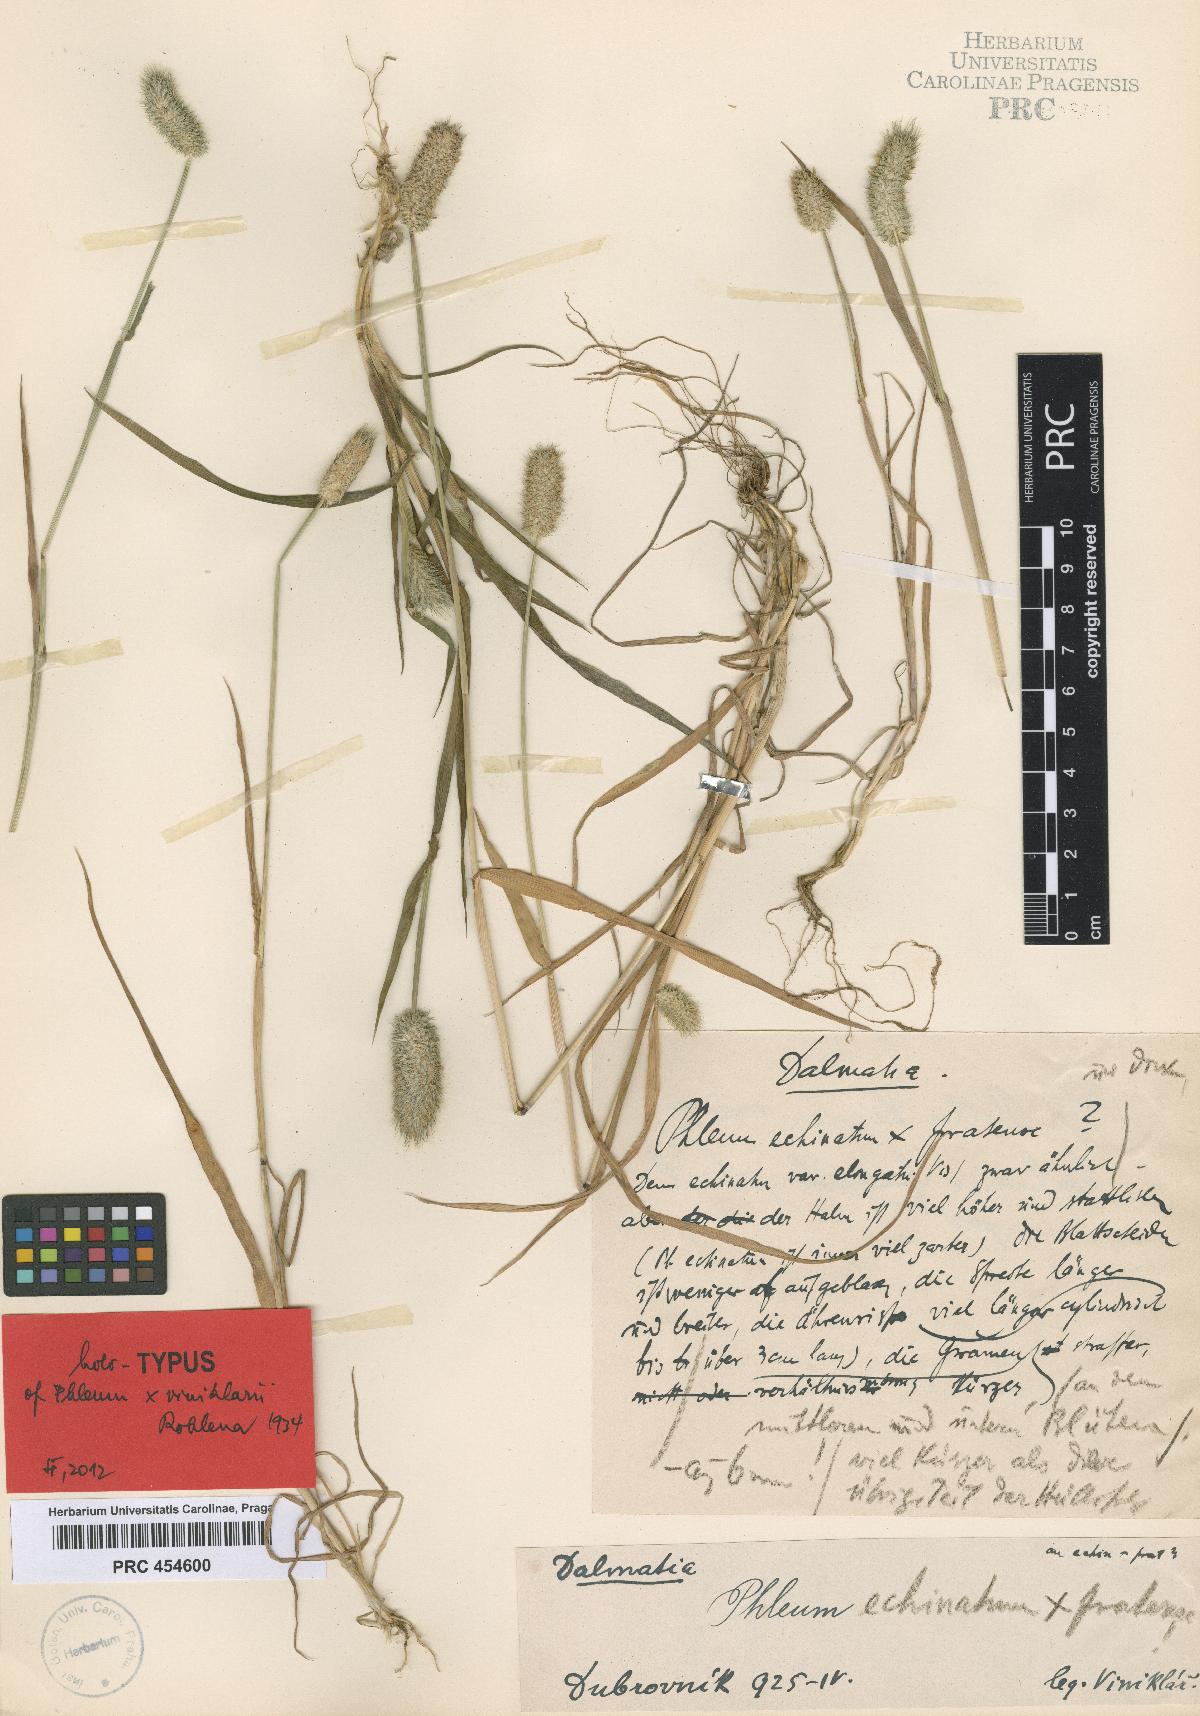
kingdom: Plantae
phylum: Tracheophyta
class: Liliopsida
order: Poales
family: Poaceae
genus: Phleum
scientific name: Phleum viniklarii
